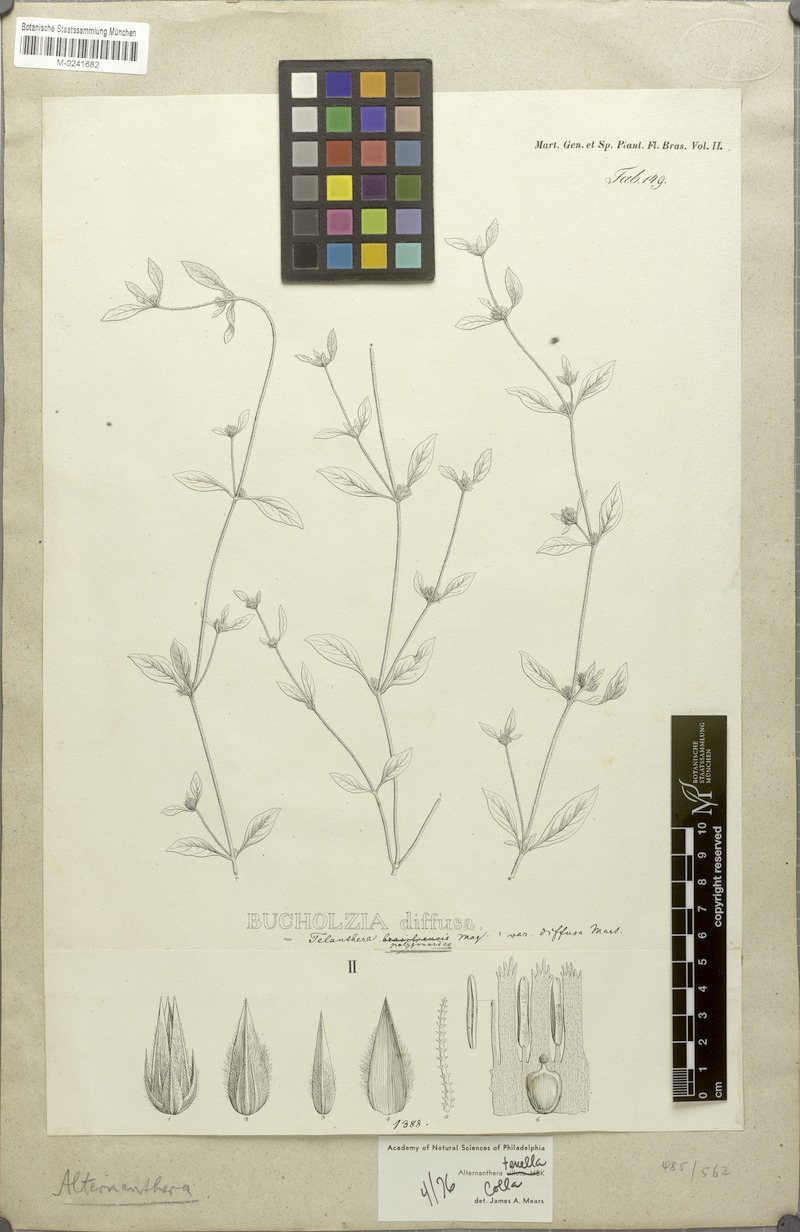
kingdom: Plantae
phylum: Tracheophyta
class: Magnoliopsida
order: Caryophyllales
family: Amaranthaceae
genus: Alternanthera
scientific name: Alternanthera paronychioides
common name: Smooth joyweed
